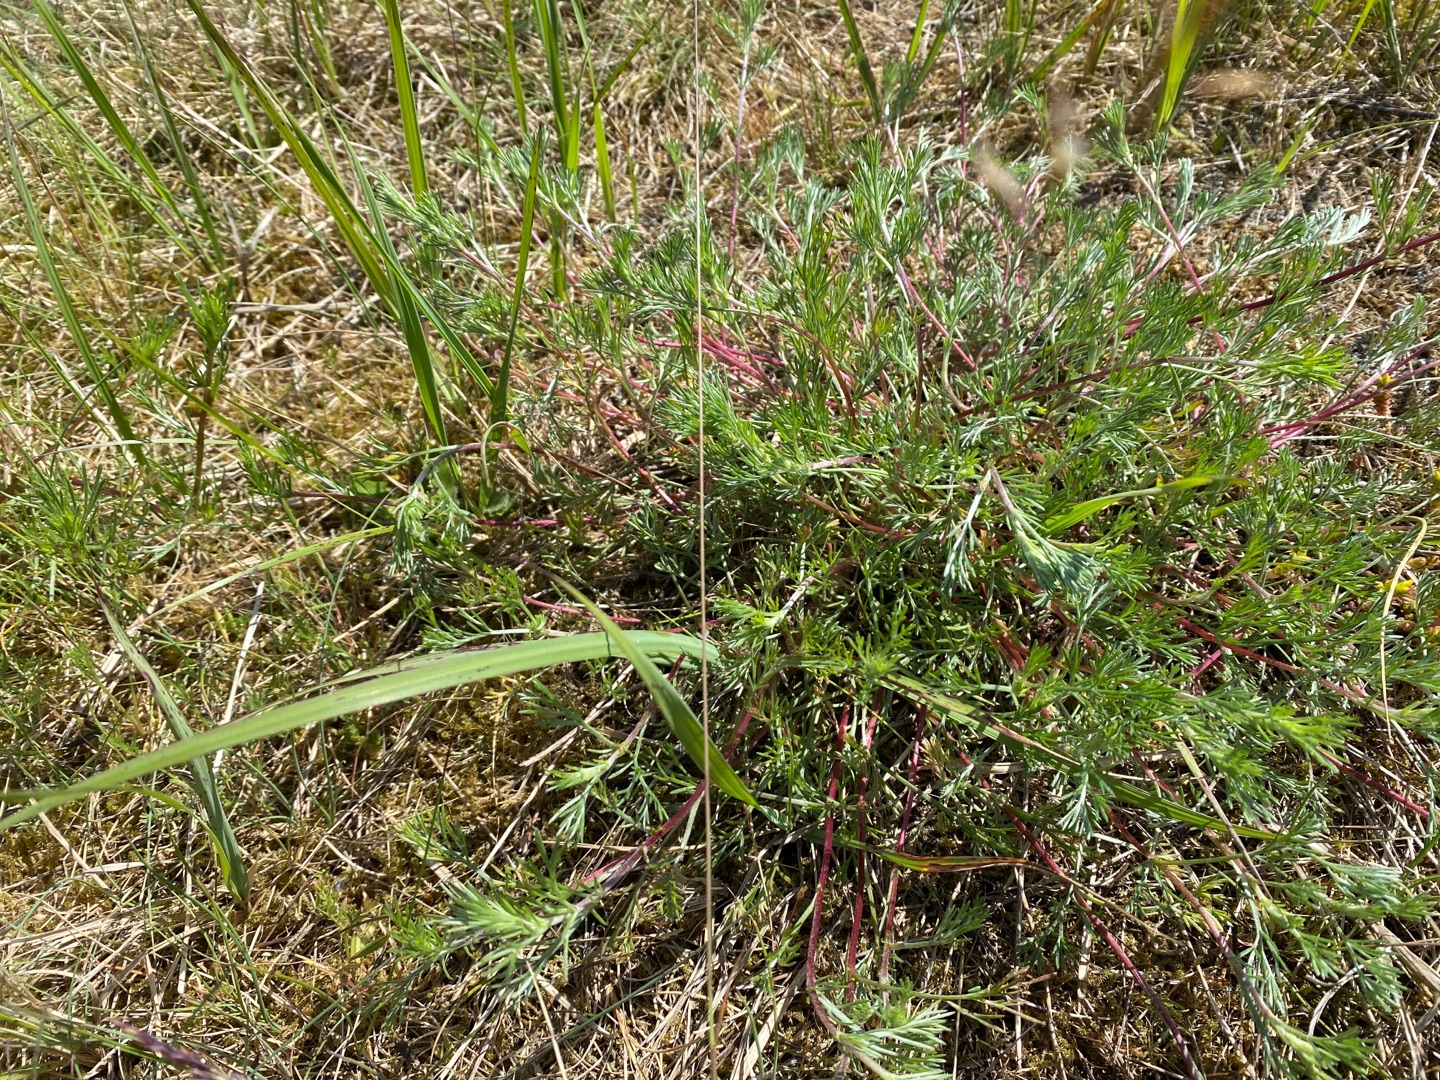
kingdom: Plantae
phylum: Tracheophyta
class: Magnoliopsida
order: Asterales
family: Asteraceae
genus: Artemisia
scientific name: Artemisia campestris
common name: Mark-bynke
